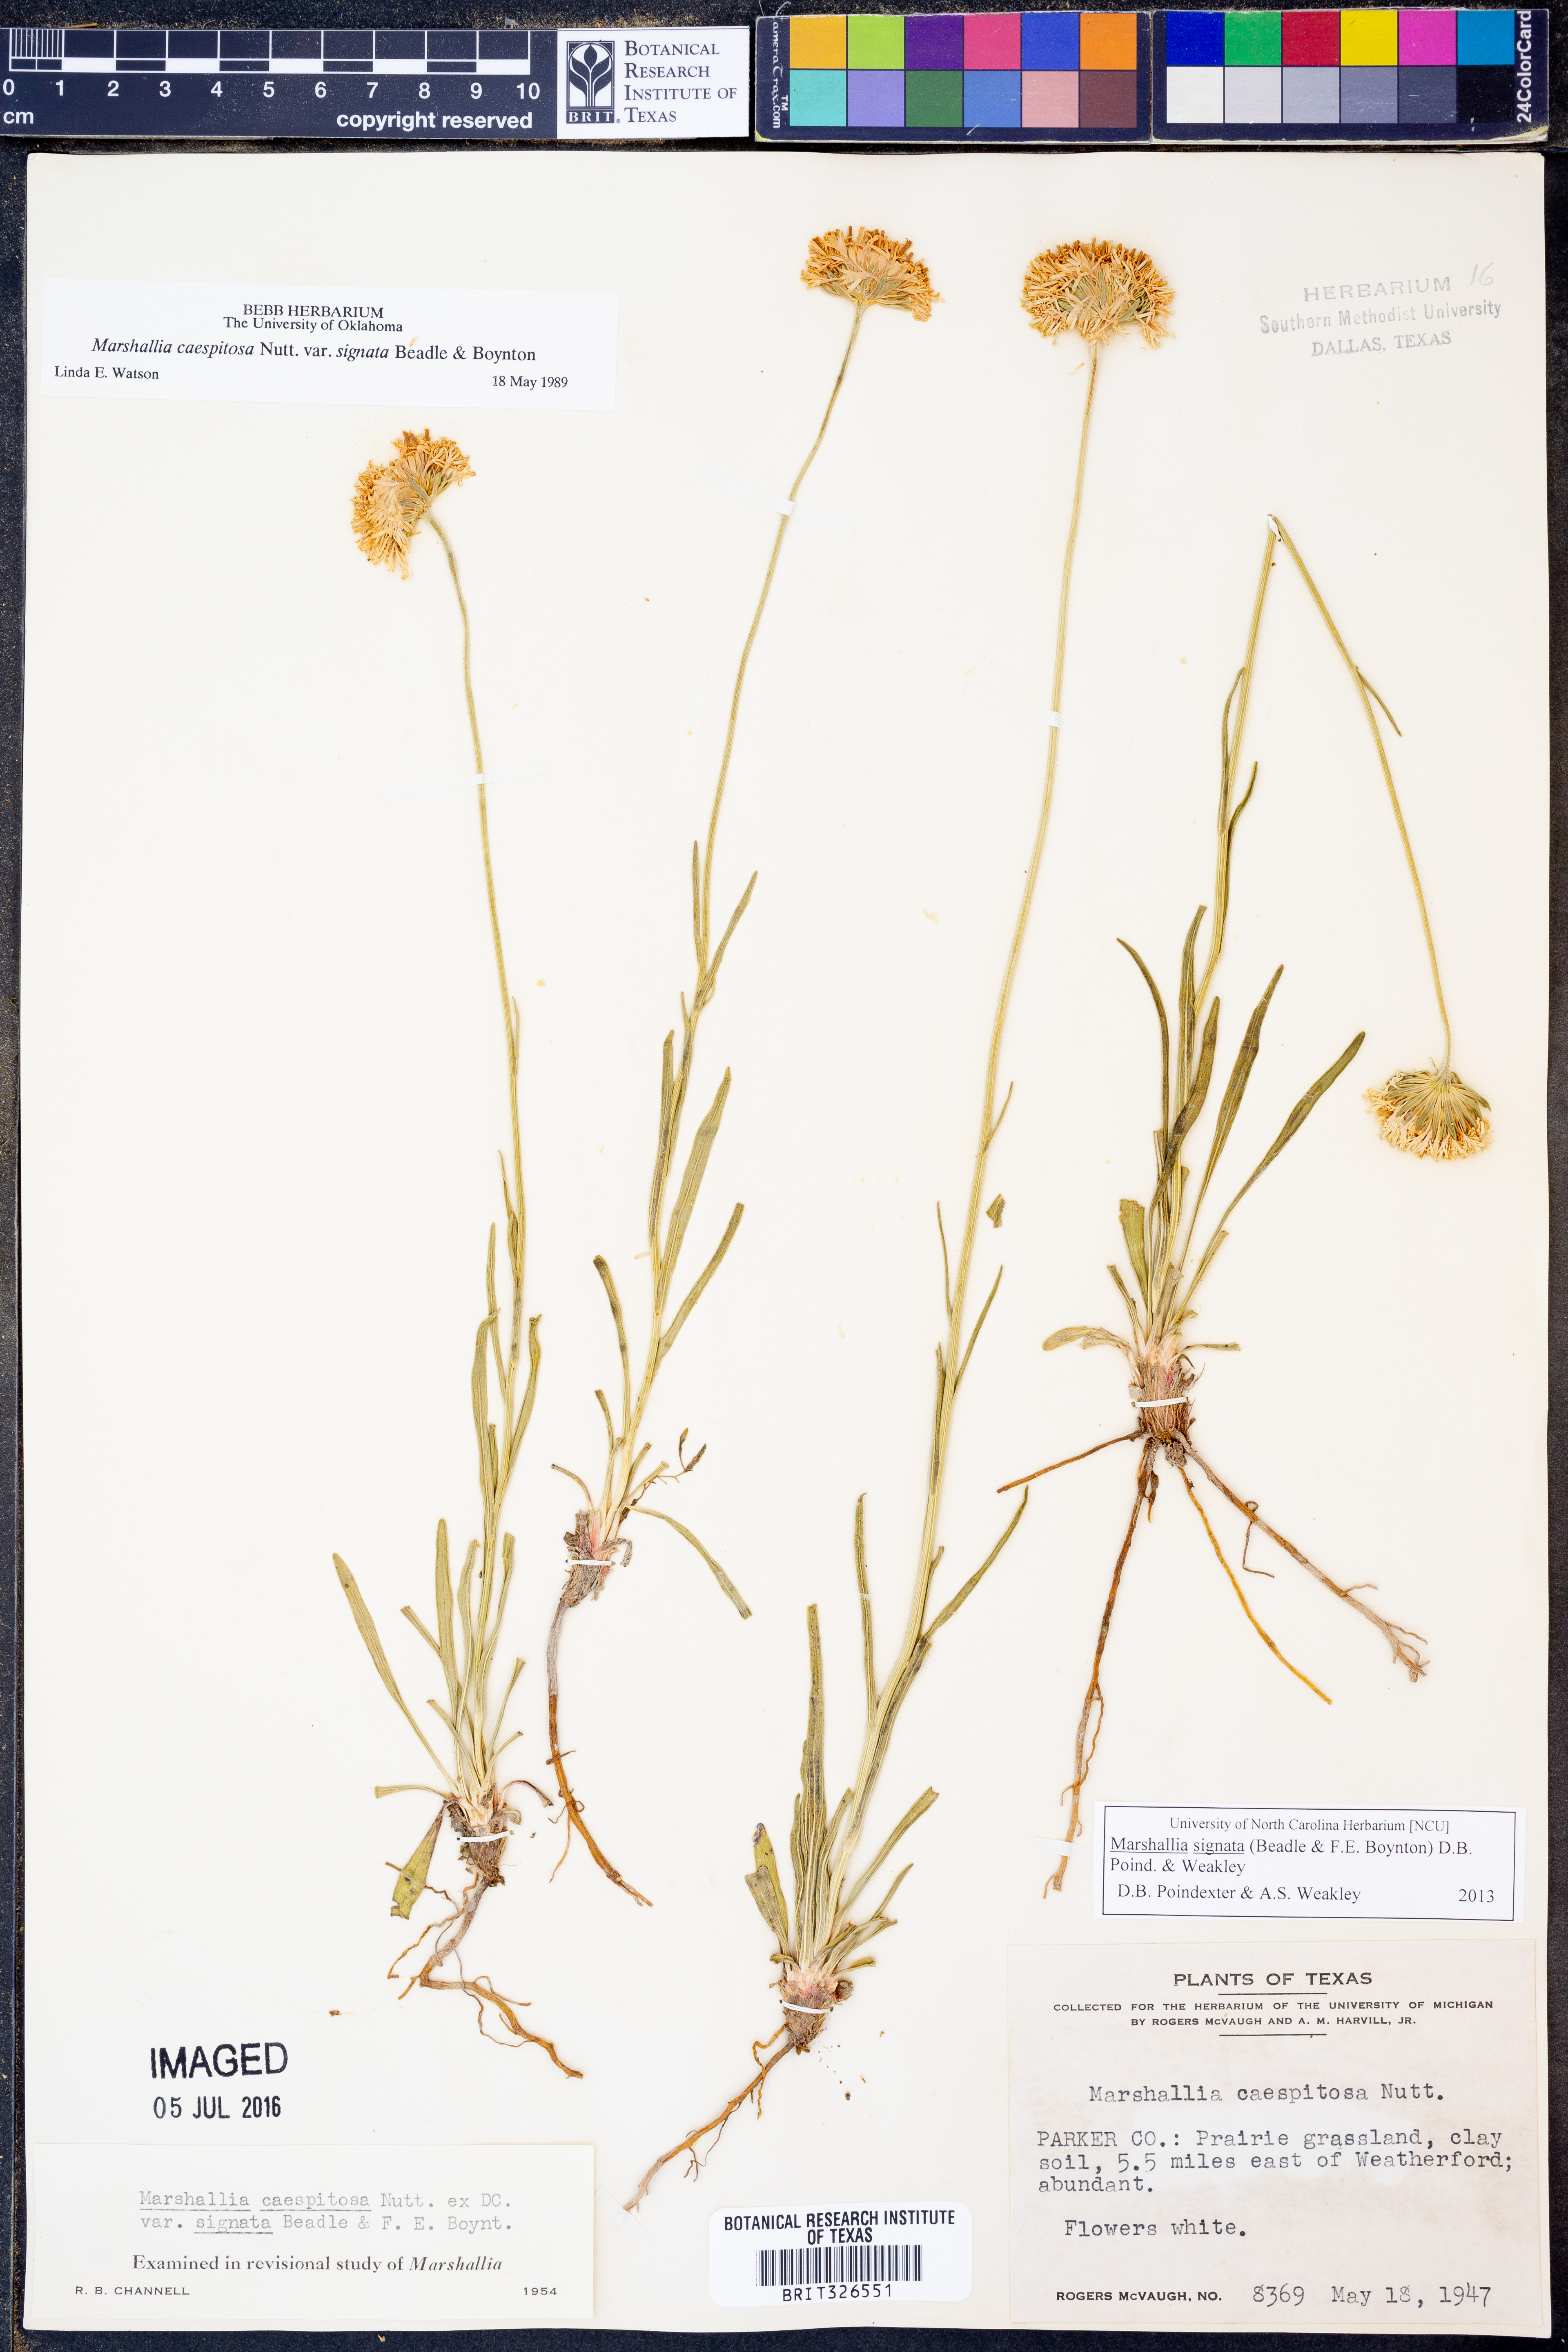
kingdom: Plantae
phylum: Tracheophyta
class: Magnoliopsida
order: Asterales
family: Asteraceae
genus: Marshallia
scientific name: Marshallia
